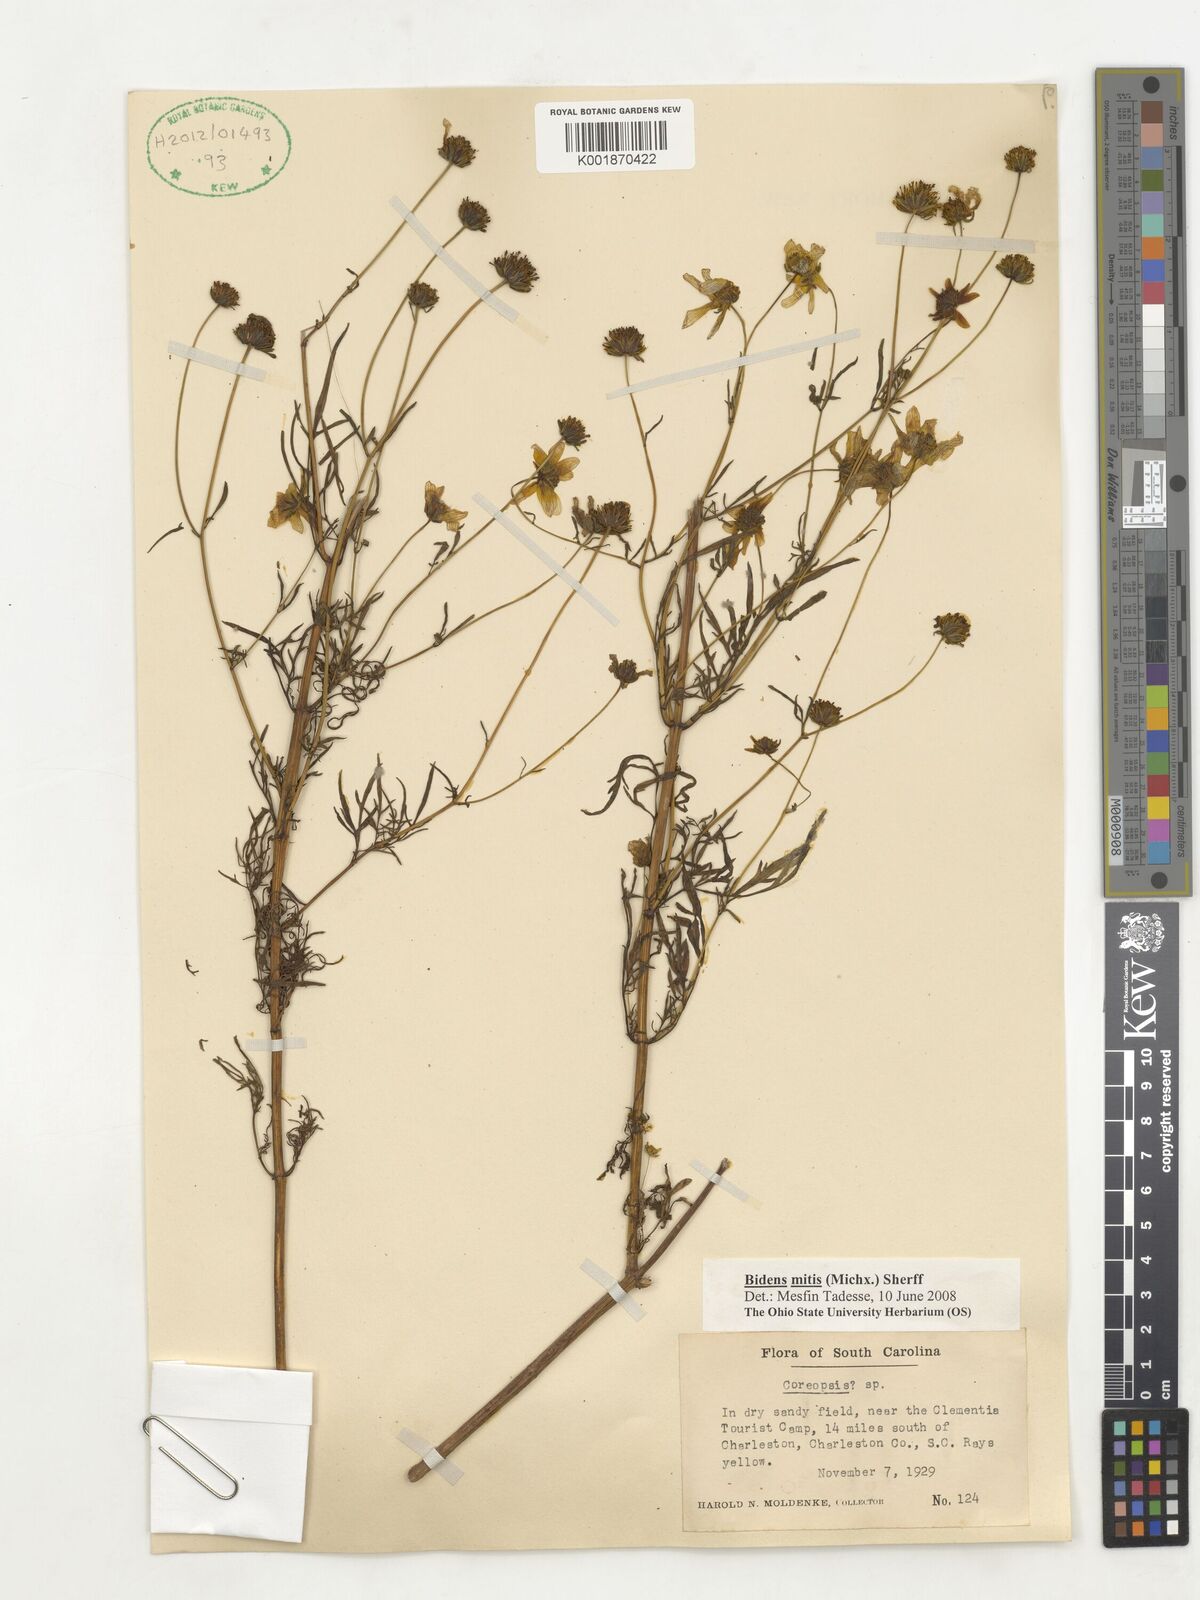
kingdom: Plantae
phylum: Tracheophyta
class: Magnoliopsida
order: Asterales
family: Asteraceae
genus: Bidens
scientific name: Bidens mitis
